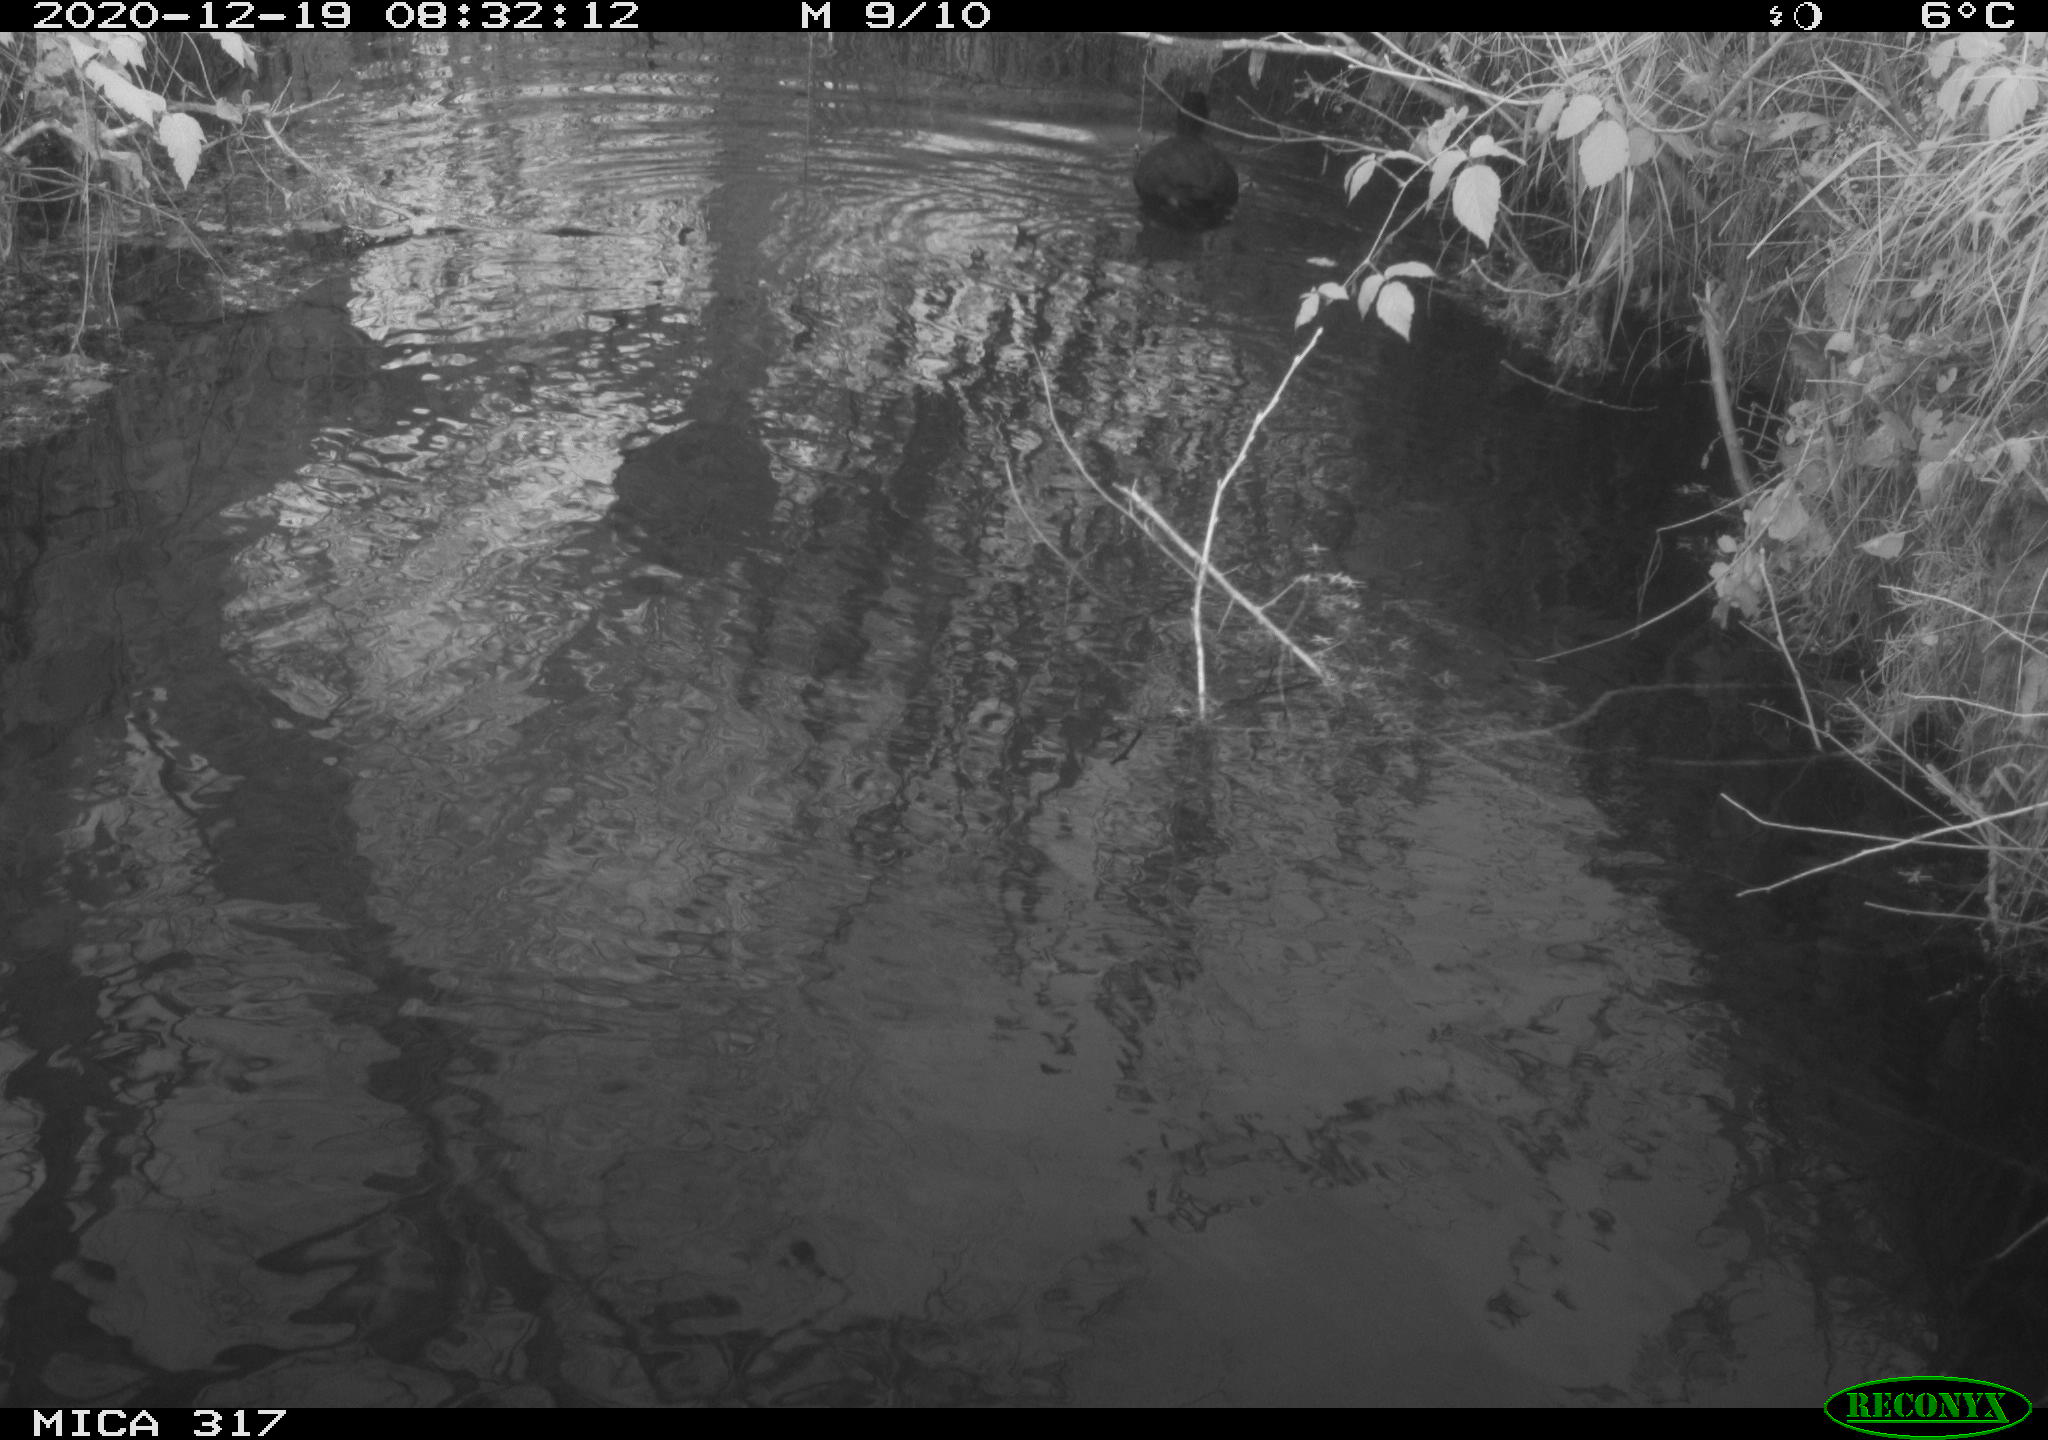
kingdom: Animalia
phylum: Chordata
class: Aves
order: Gruiformes
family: Rallidae
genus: Fulica
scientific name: Fulica atra
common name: Eurasian coot
